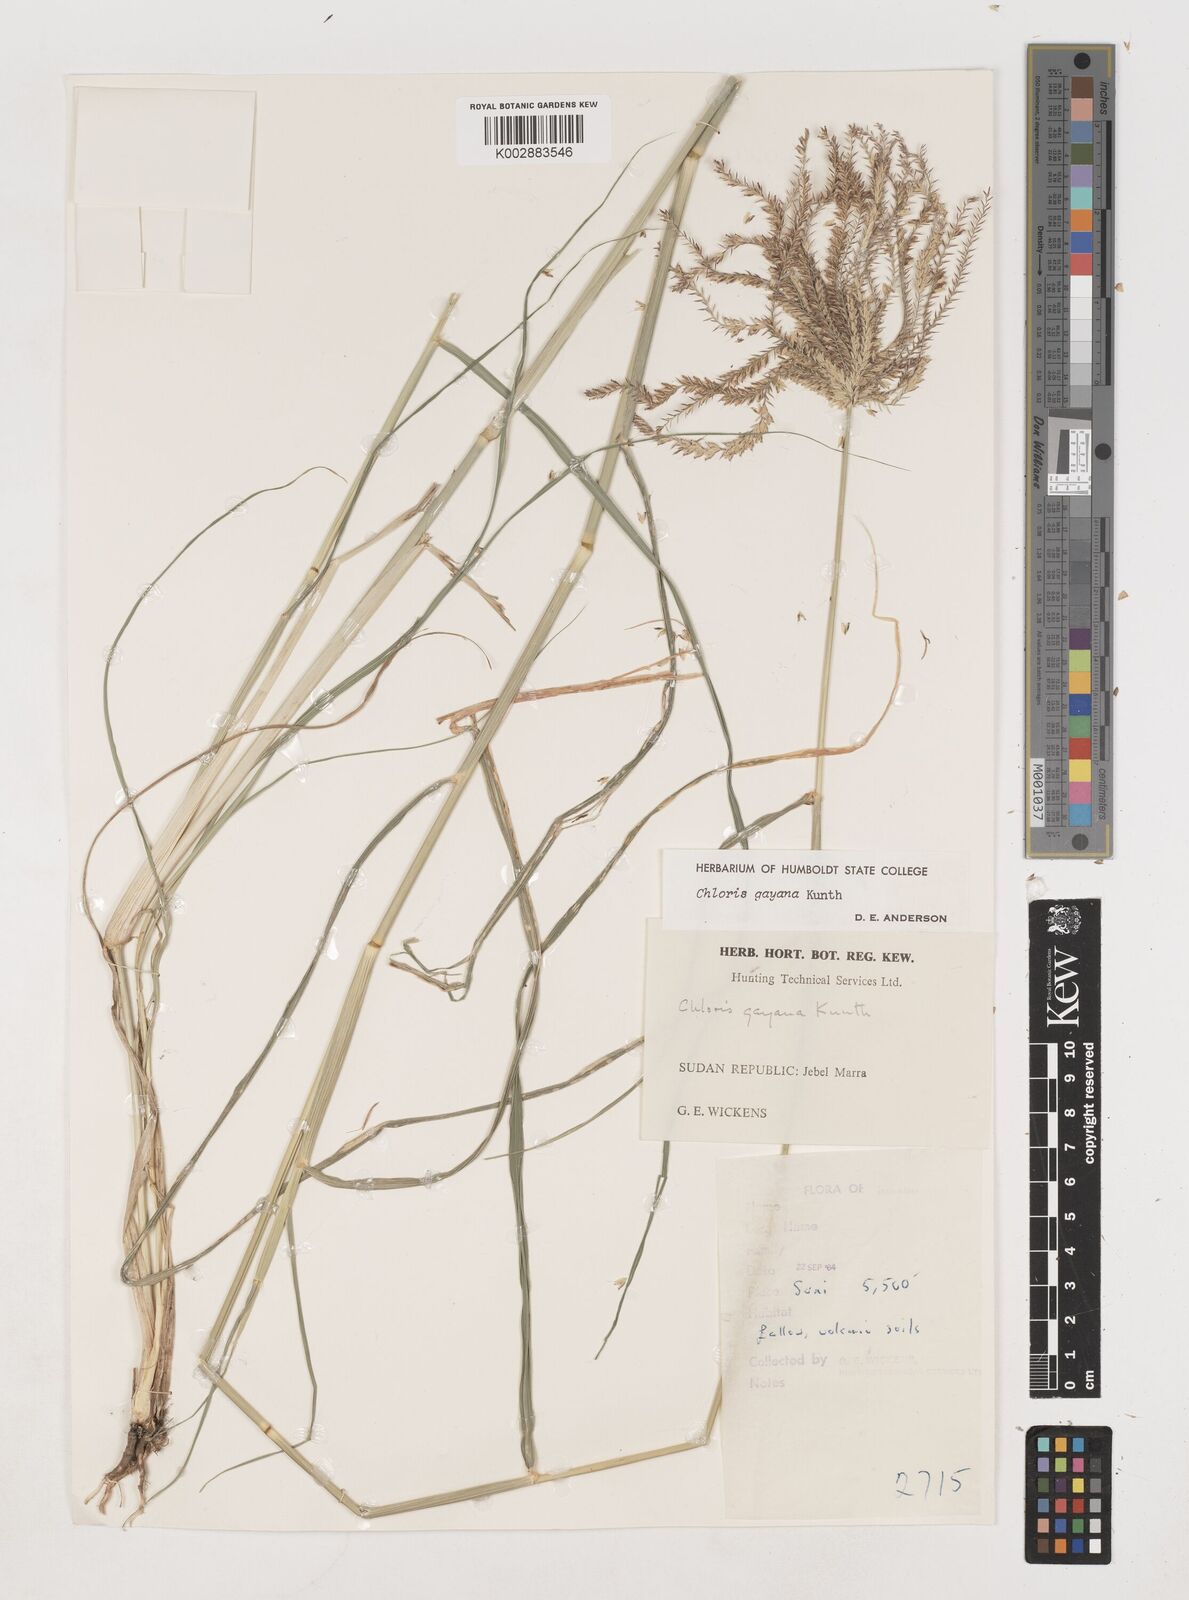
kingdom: Plantae
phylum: Tracheophyta
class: Liliopsida
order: Poales
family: Poaceae
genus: Chloris
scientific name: Chloris gayana
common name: Rhodes grass
